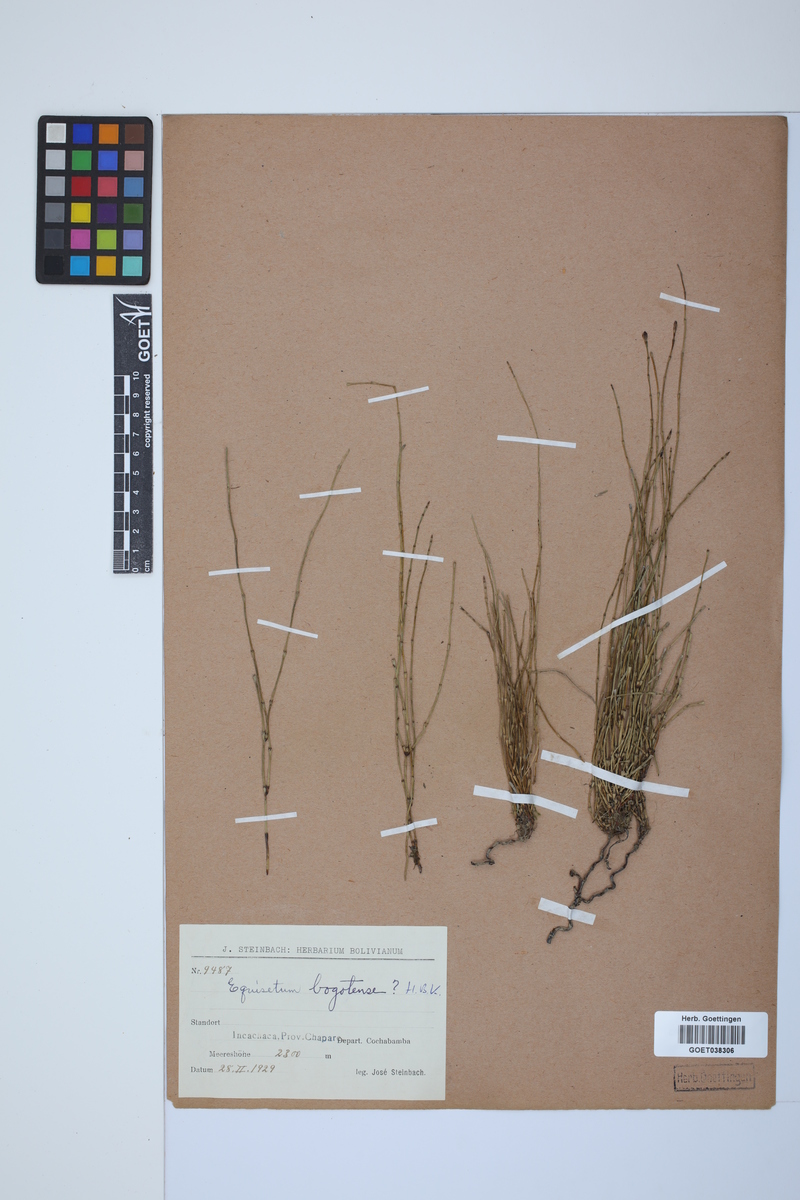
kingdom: Plantae
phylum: Tracheophyta
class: Polypodiopsida
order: Equisetales
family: Equisetaceae
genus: Equisetum
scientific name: Equisetum bogotense
